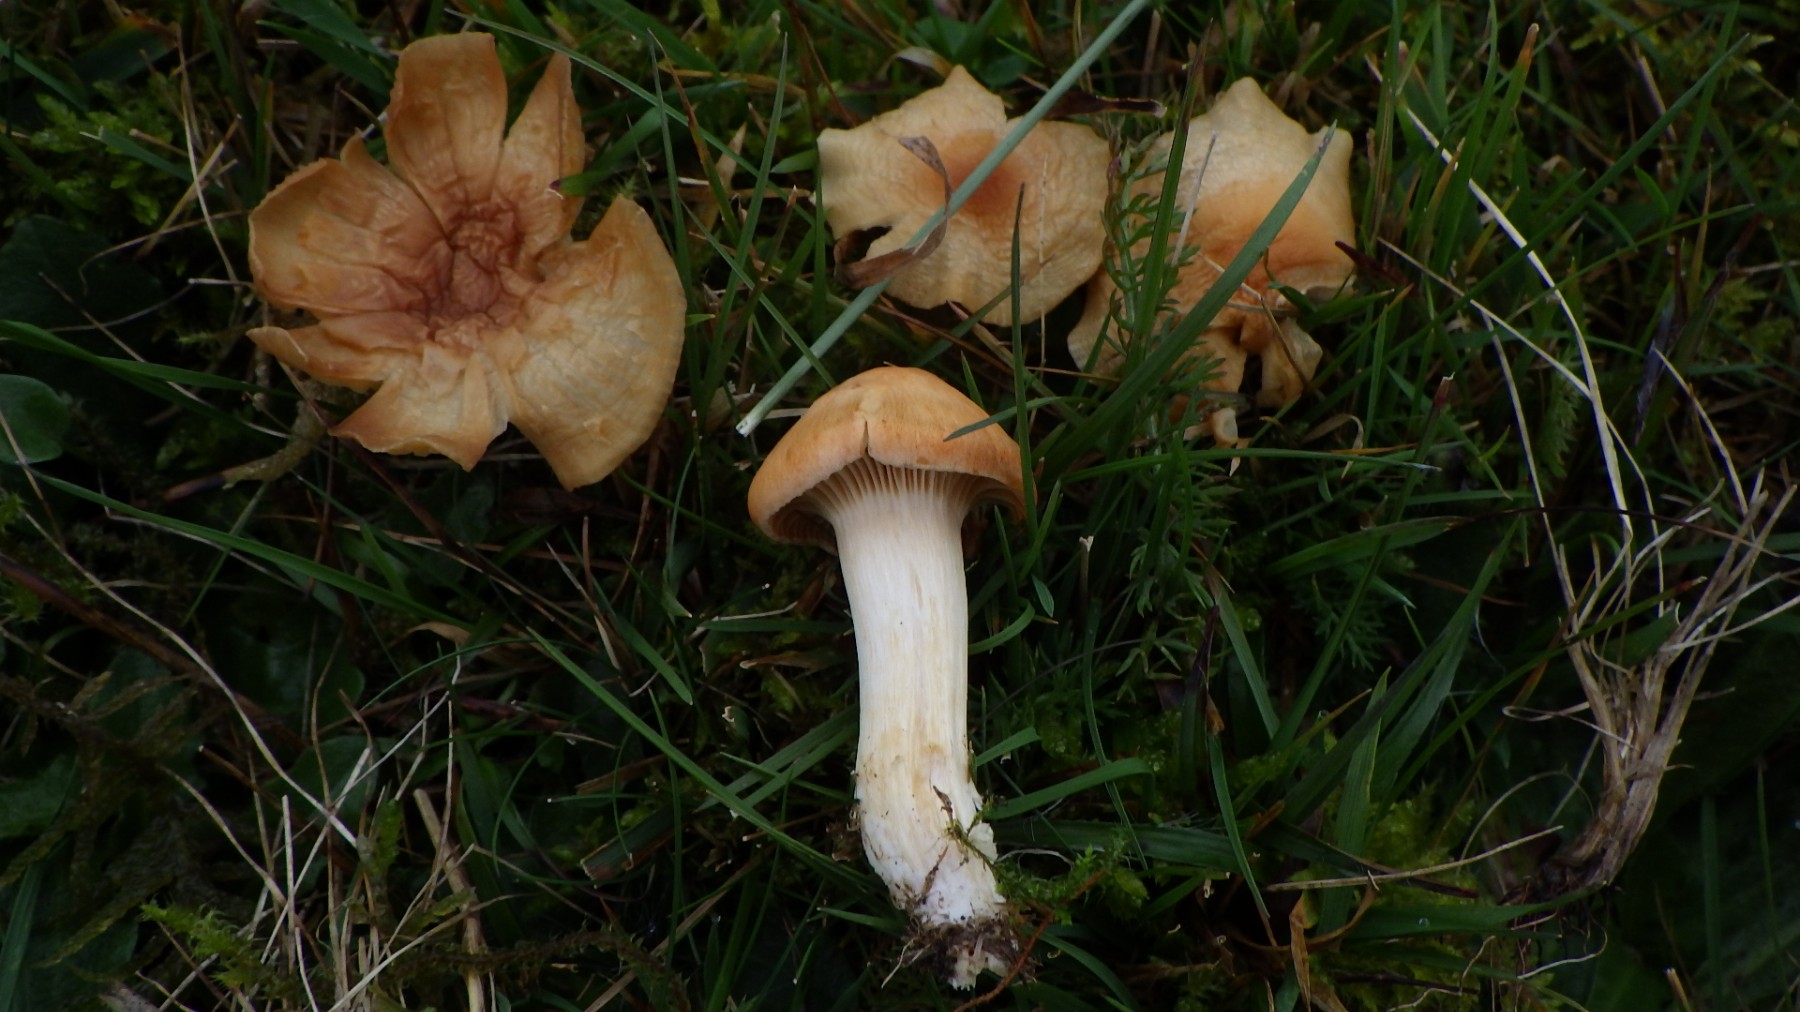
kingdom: Fungi
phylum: Basidiomycota
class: Agaricomycetes
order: Agaricales
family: Hygrophoraceae
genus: Cuphophyllus
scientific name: Cuphophyllus pratensis
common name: eng-vokshat
